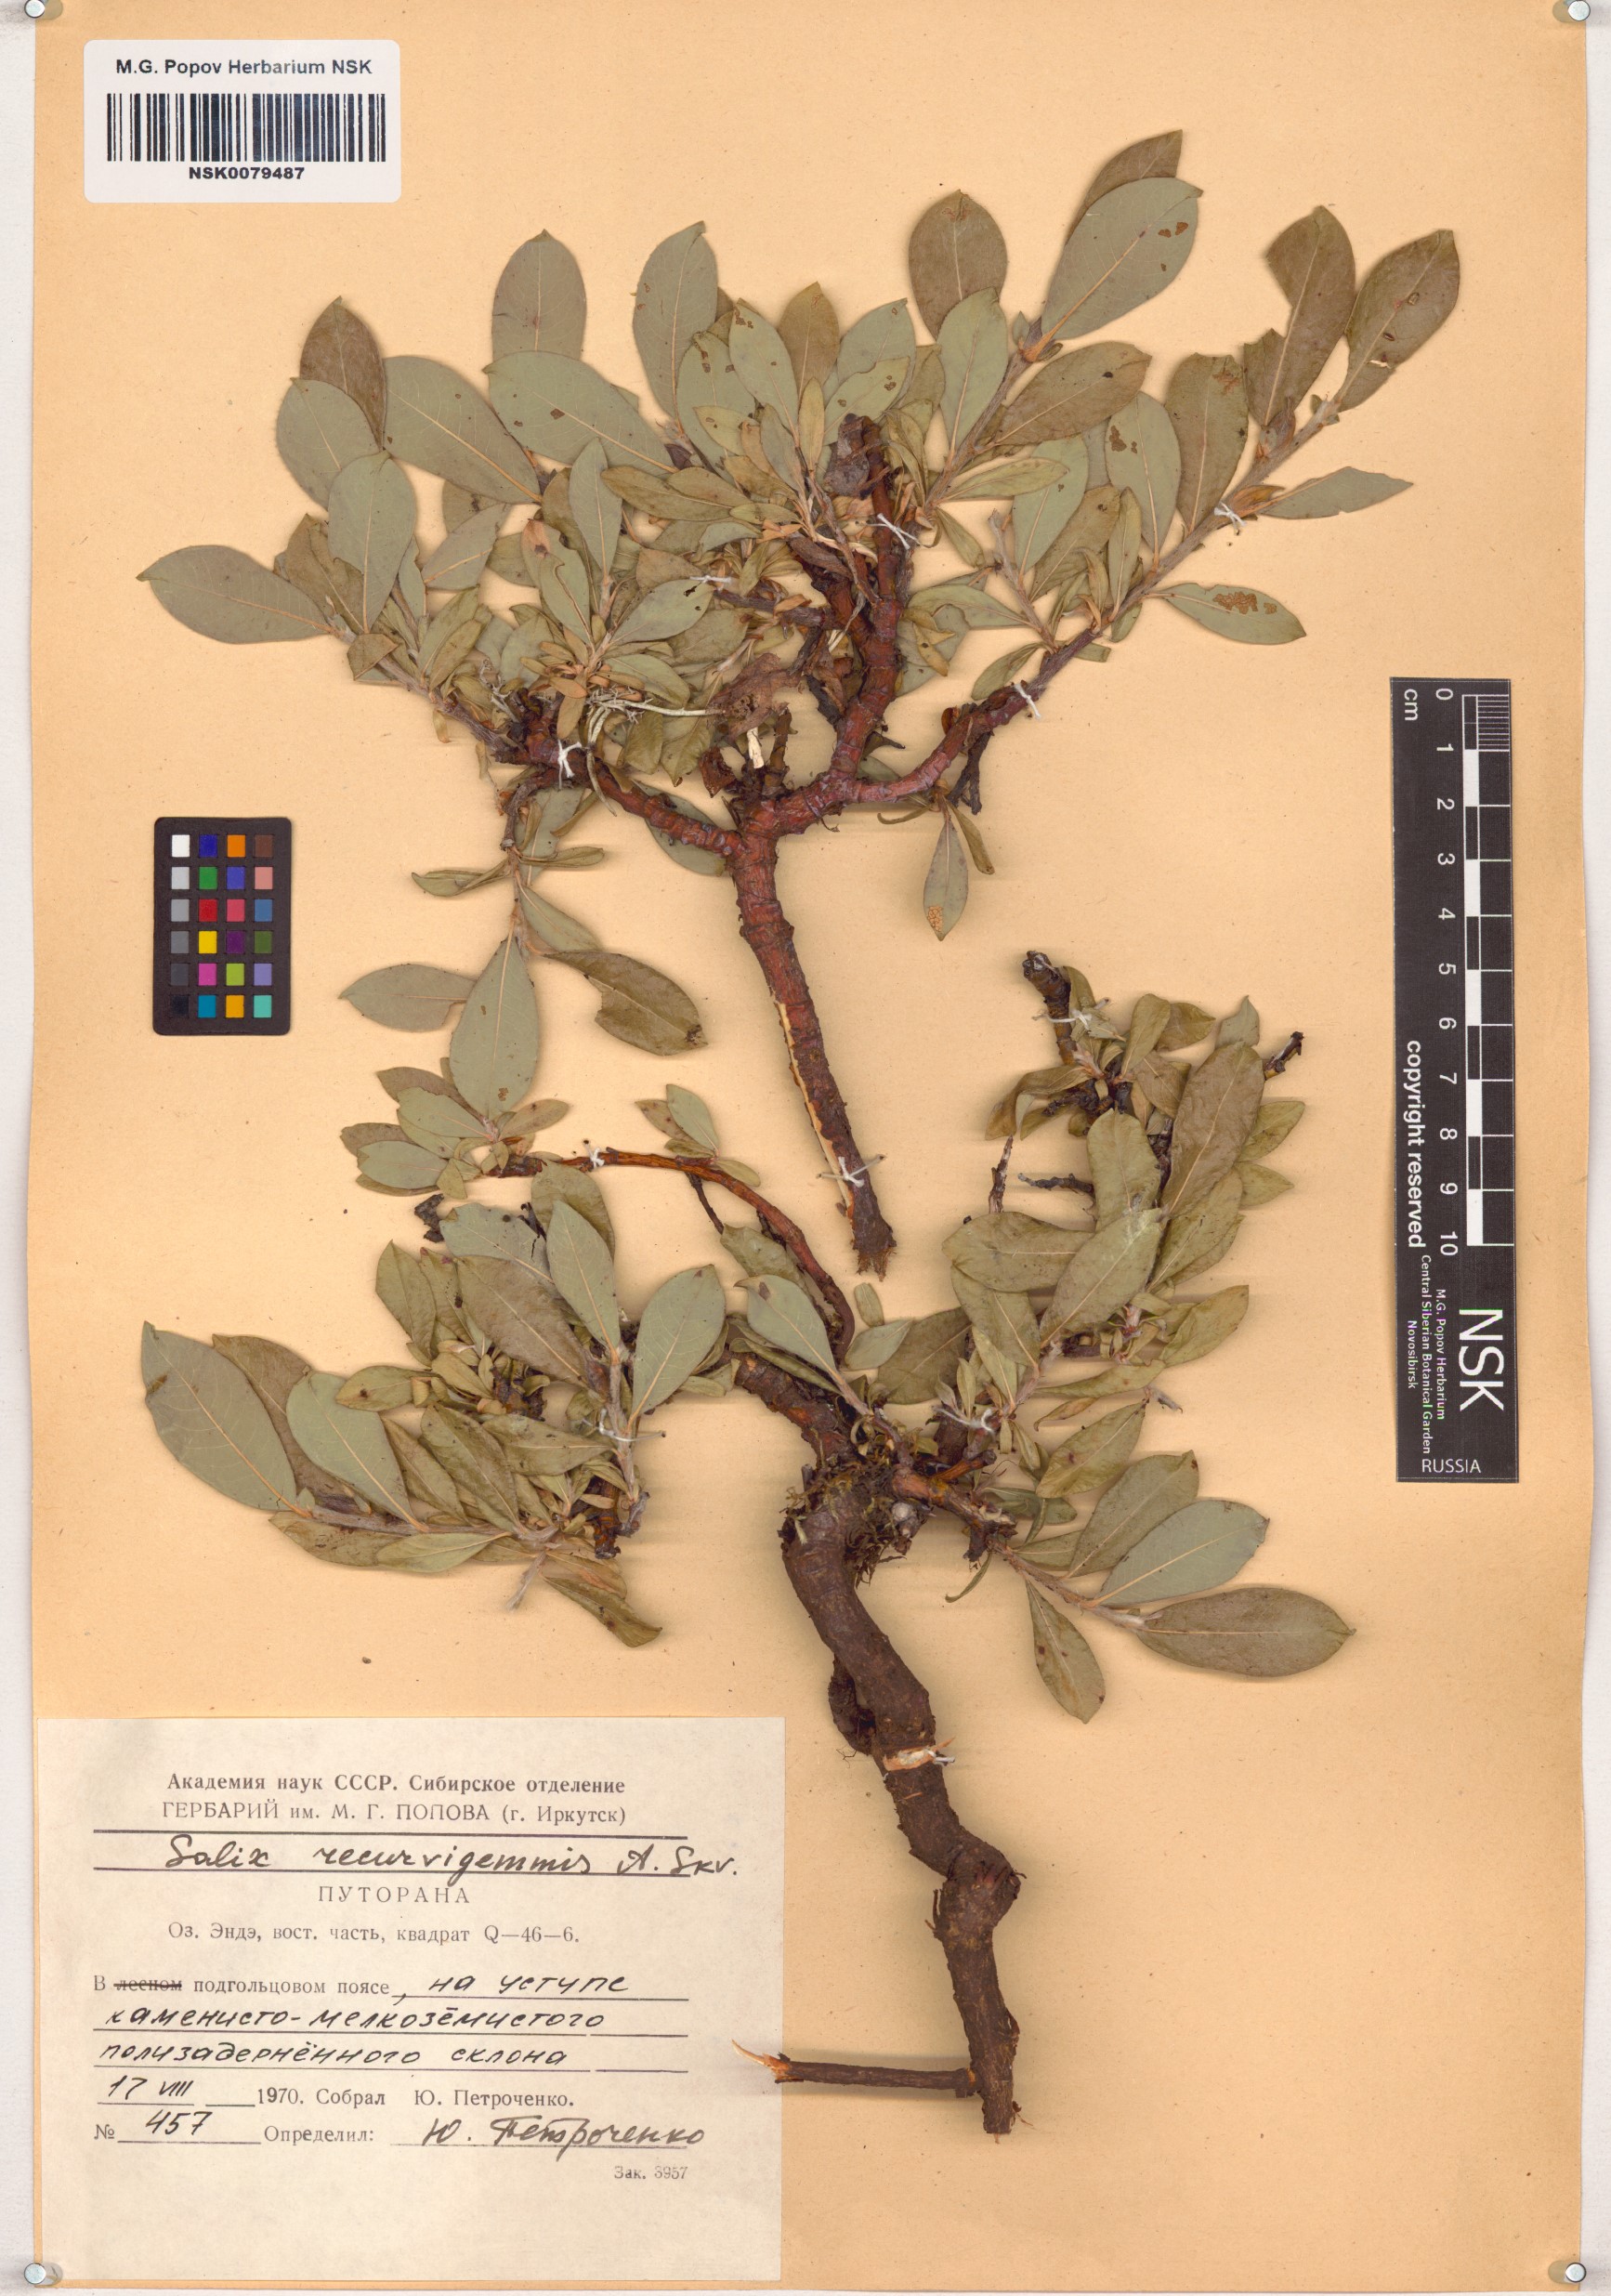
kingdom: Plantae
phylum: Tracheophyta
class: Magnoliopsida
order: Malpighiales
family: Salicaceae
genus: Salix
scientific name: Salix recurvigemmata
